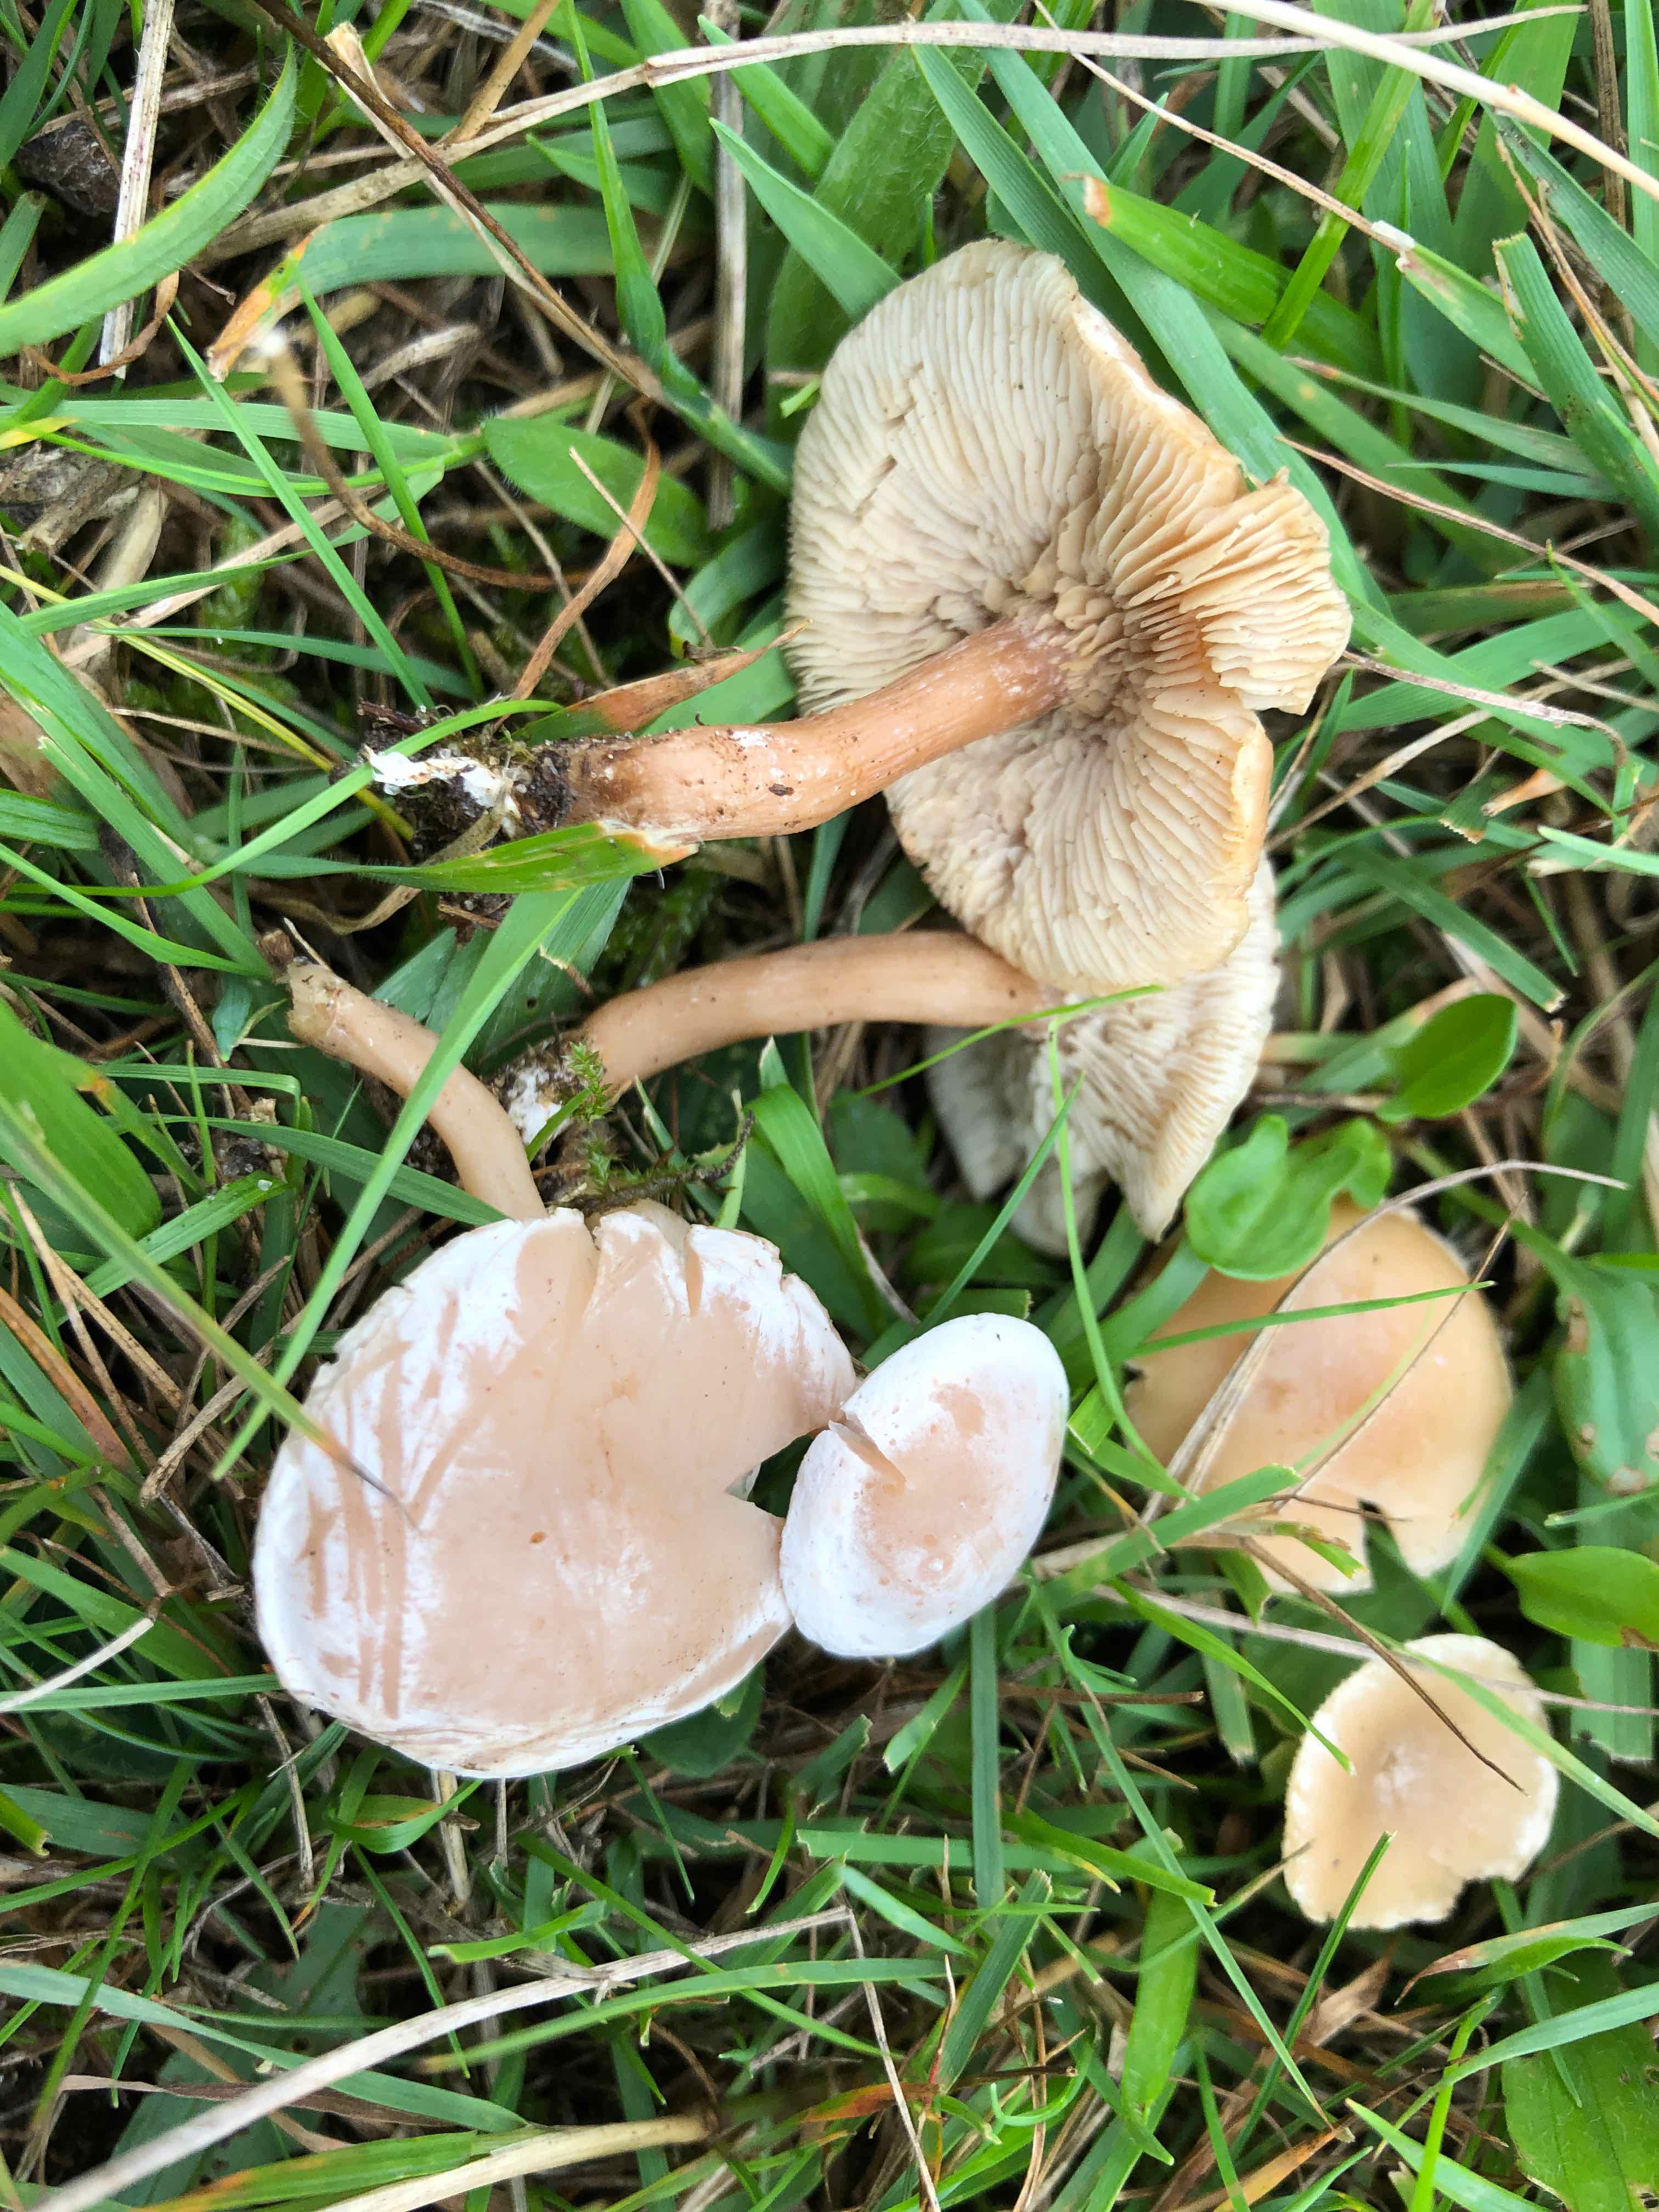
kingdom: Fungi
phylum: Basidiomycota
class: Agaricomycetes
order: Agaricales
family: Tricholomataceae
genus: Clitocybe
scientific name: Clitocybe rivulosa
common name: eng-tragthat
